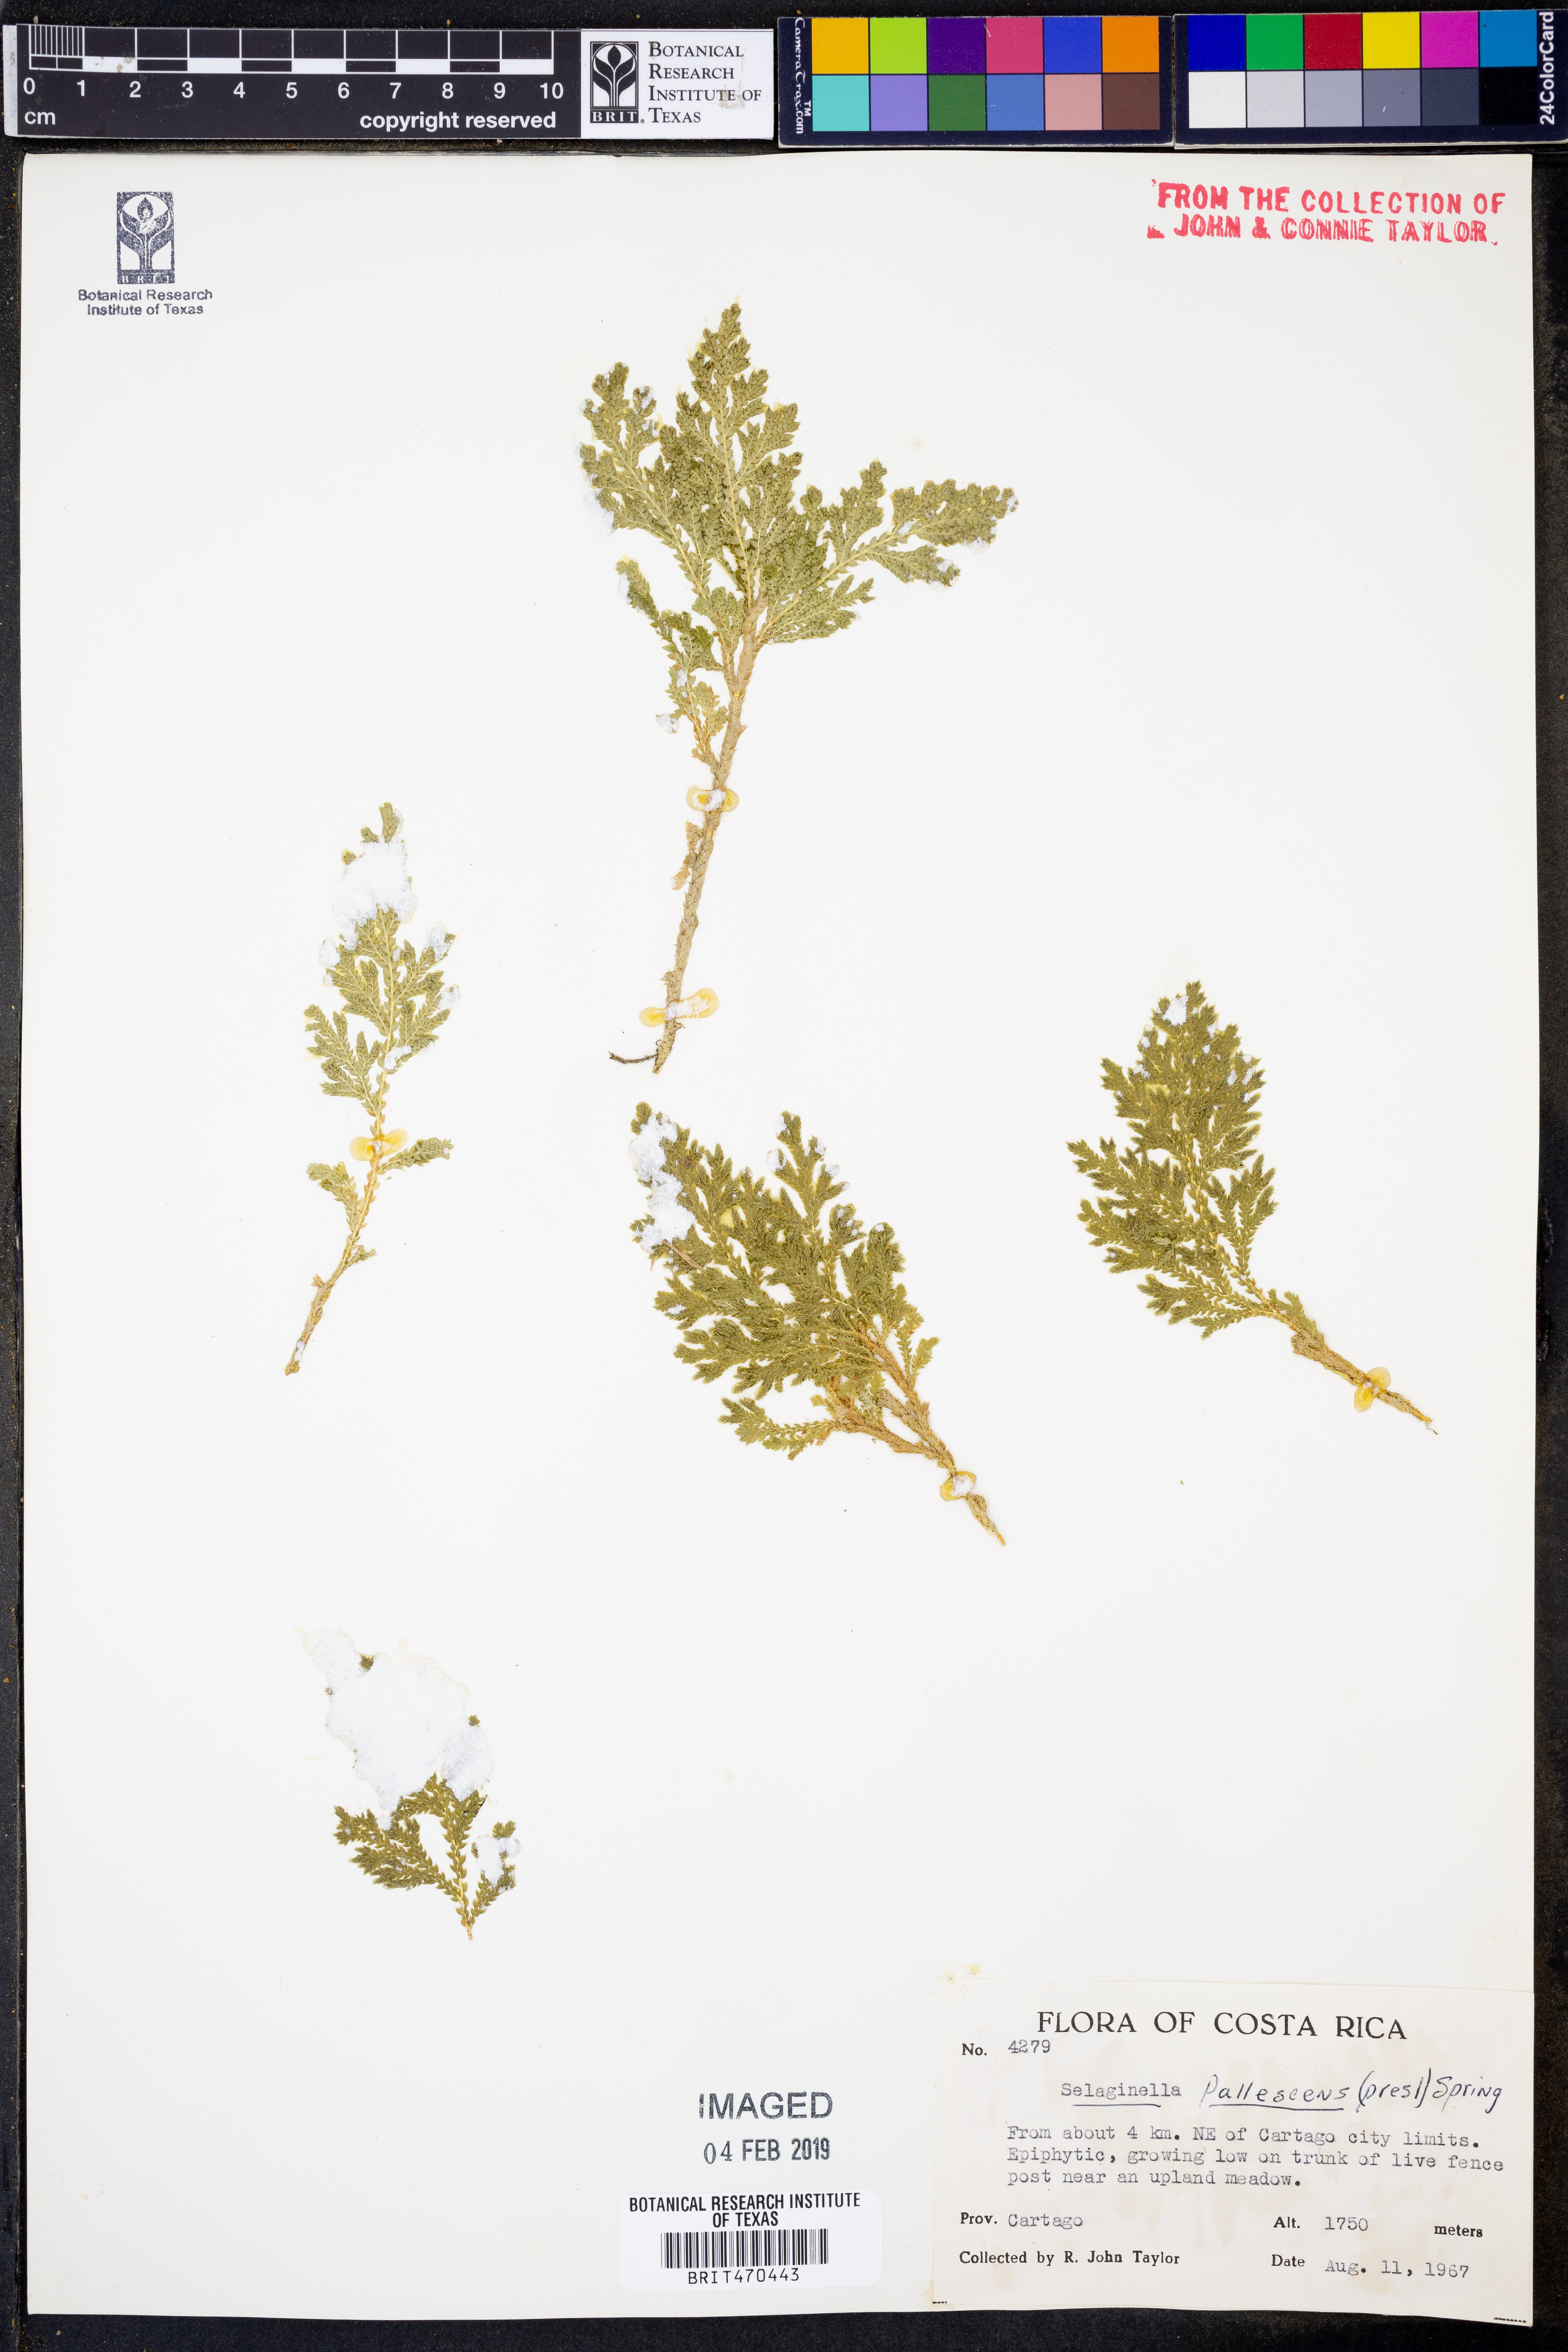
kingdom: Plantae
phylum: Tracheophyta
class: Lycopodiopsida
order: Selaginellales
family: Selaginellaceae
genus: Selaginella
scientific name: Selaginella pallescens
